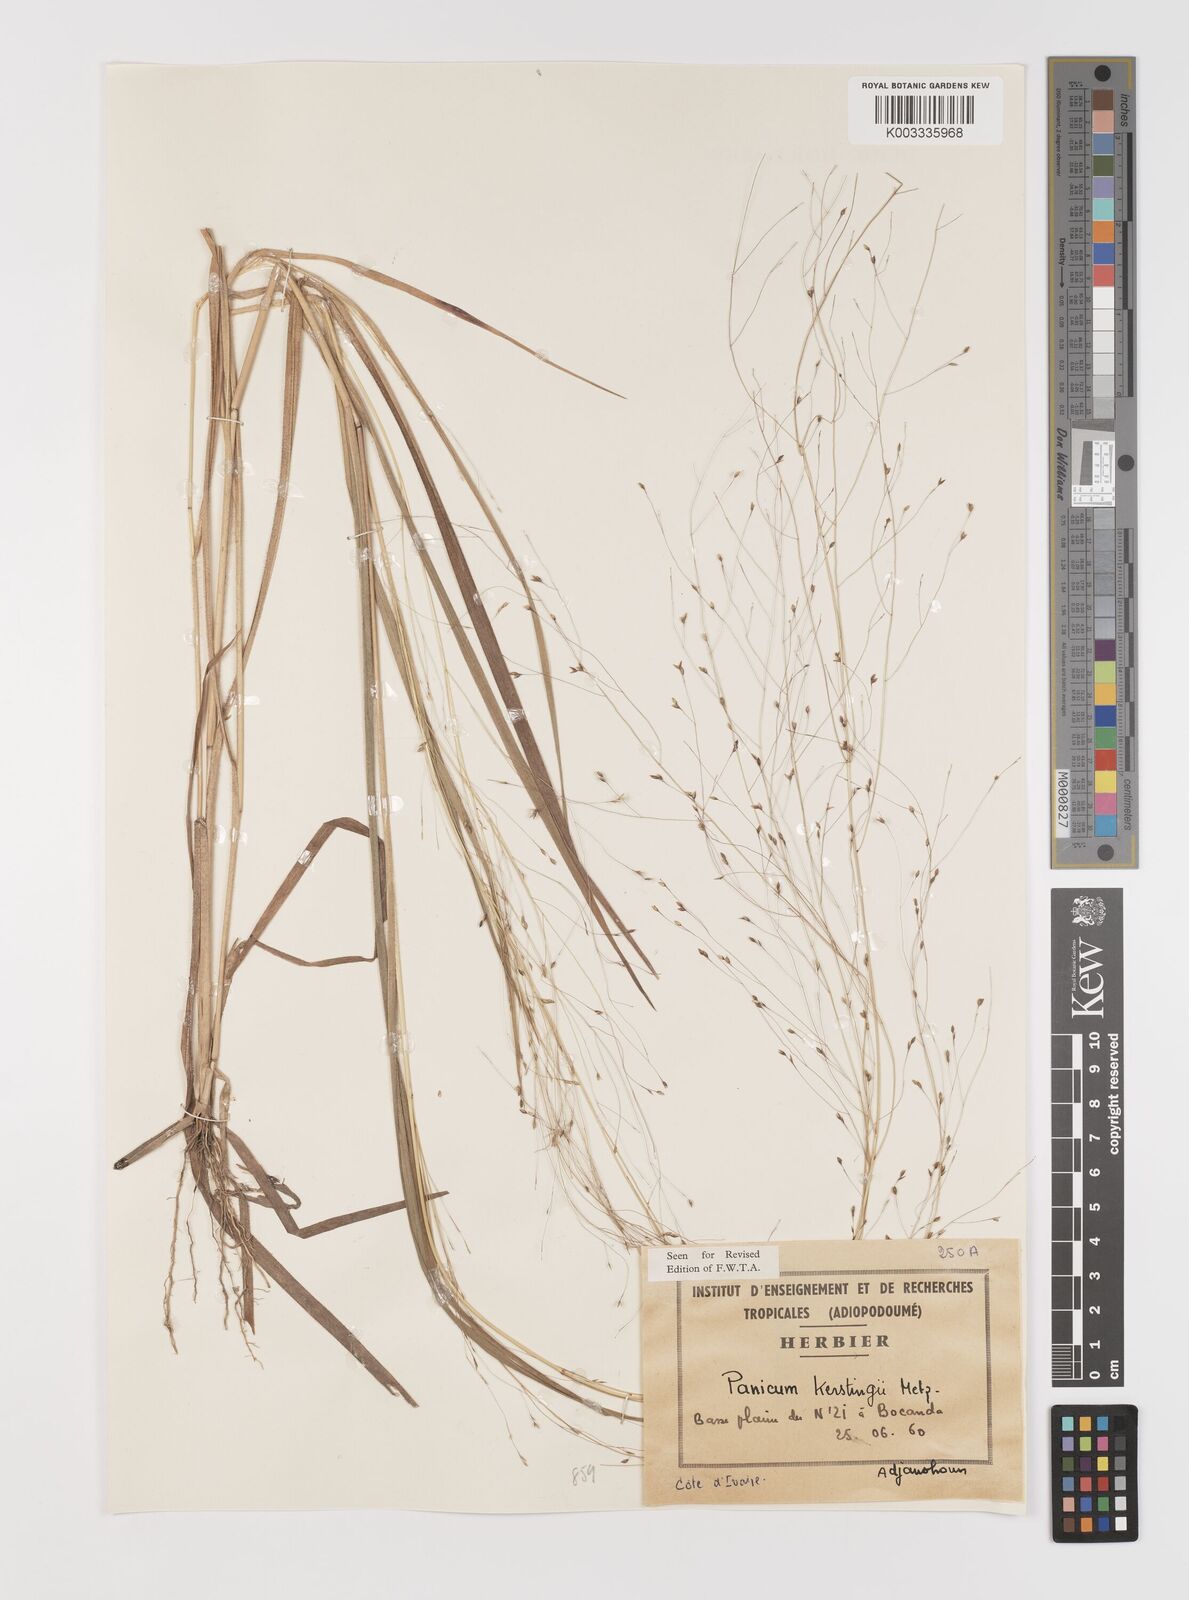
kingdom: Plantae
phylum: Tracheophyta
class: Liliopsida
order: Poales
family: Poaceae
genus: Panicum
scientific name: Panicum pansum
